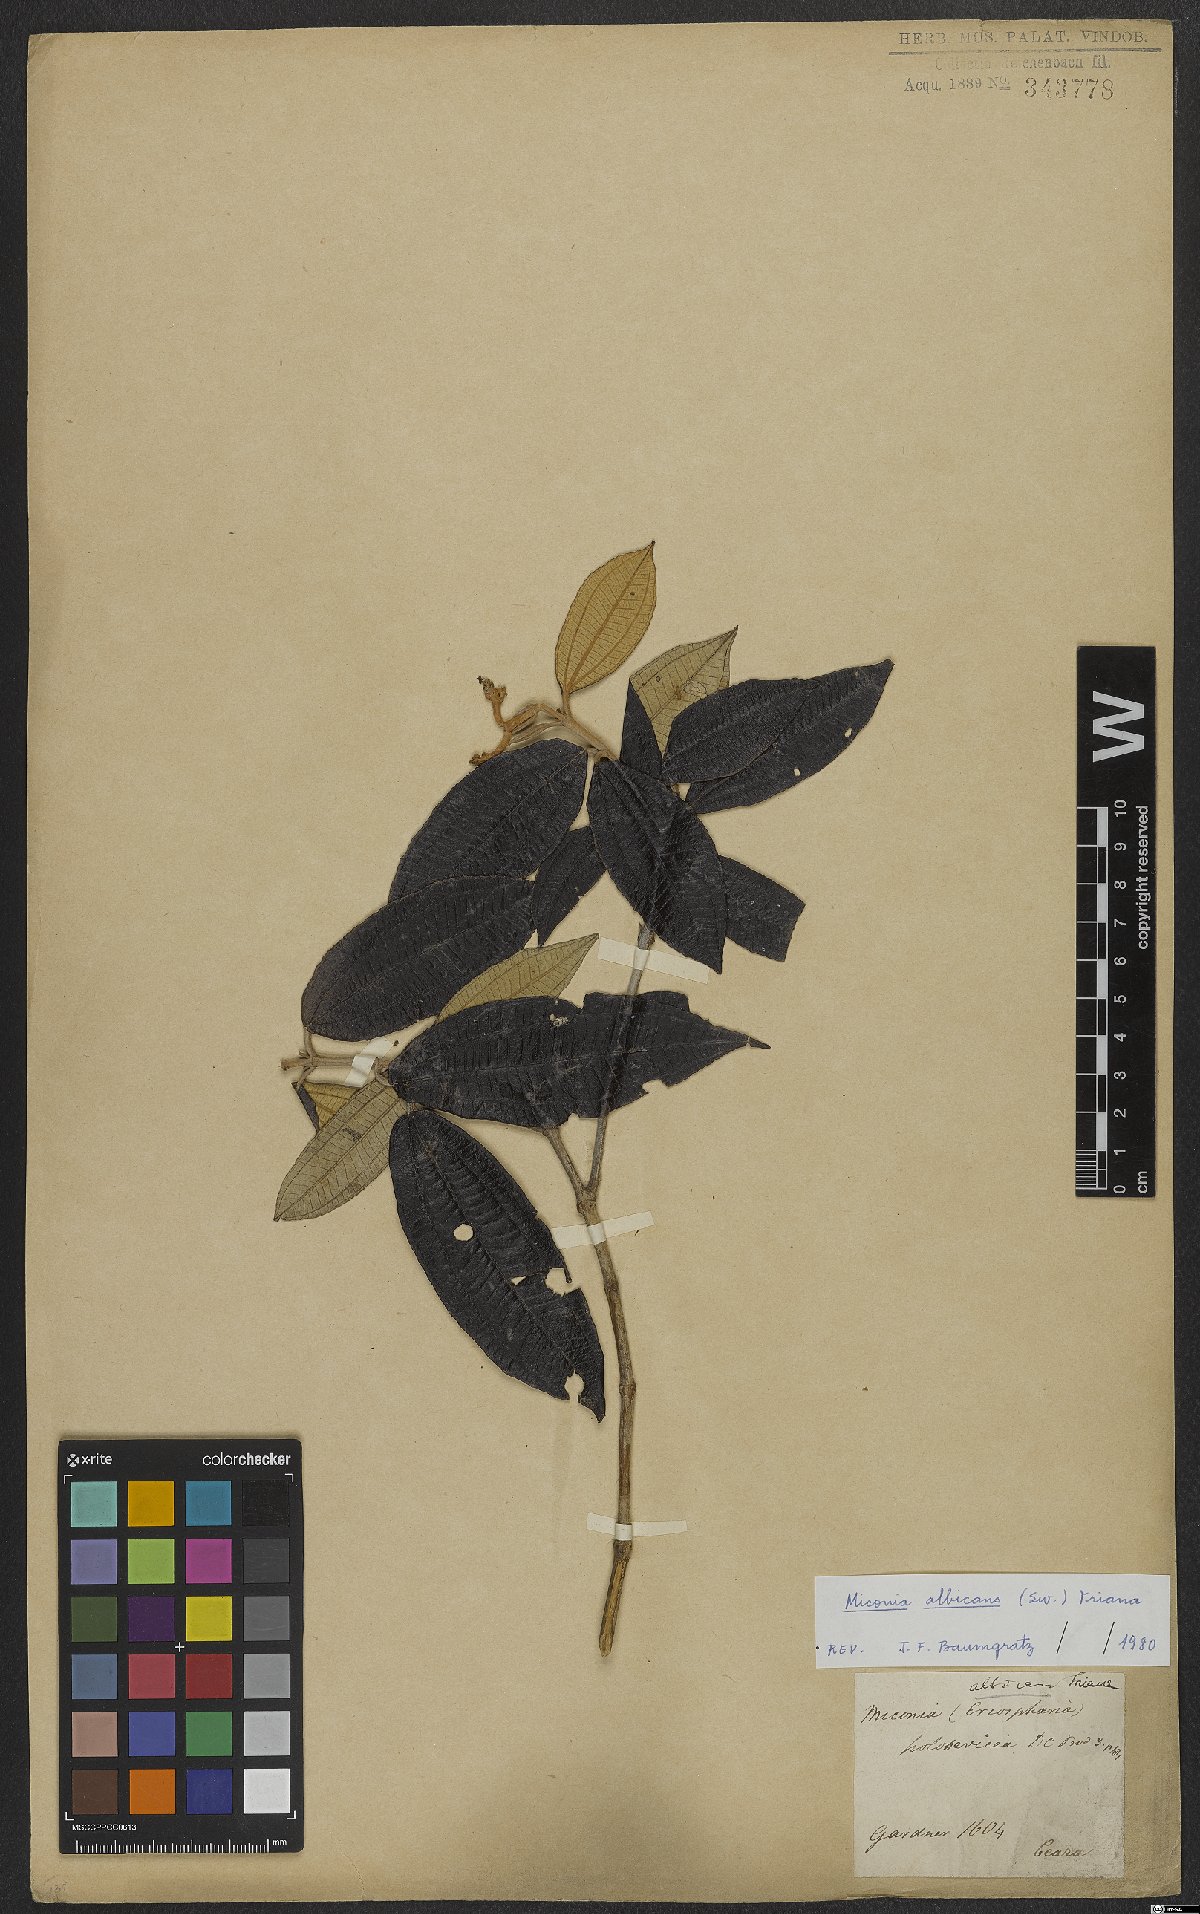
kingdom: Plantae
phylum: Tracheophyta
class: Magnoliopsida
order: Myrtales
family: Melastomataceae
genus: Miconia
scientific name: Miconia albicans
